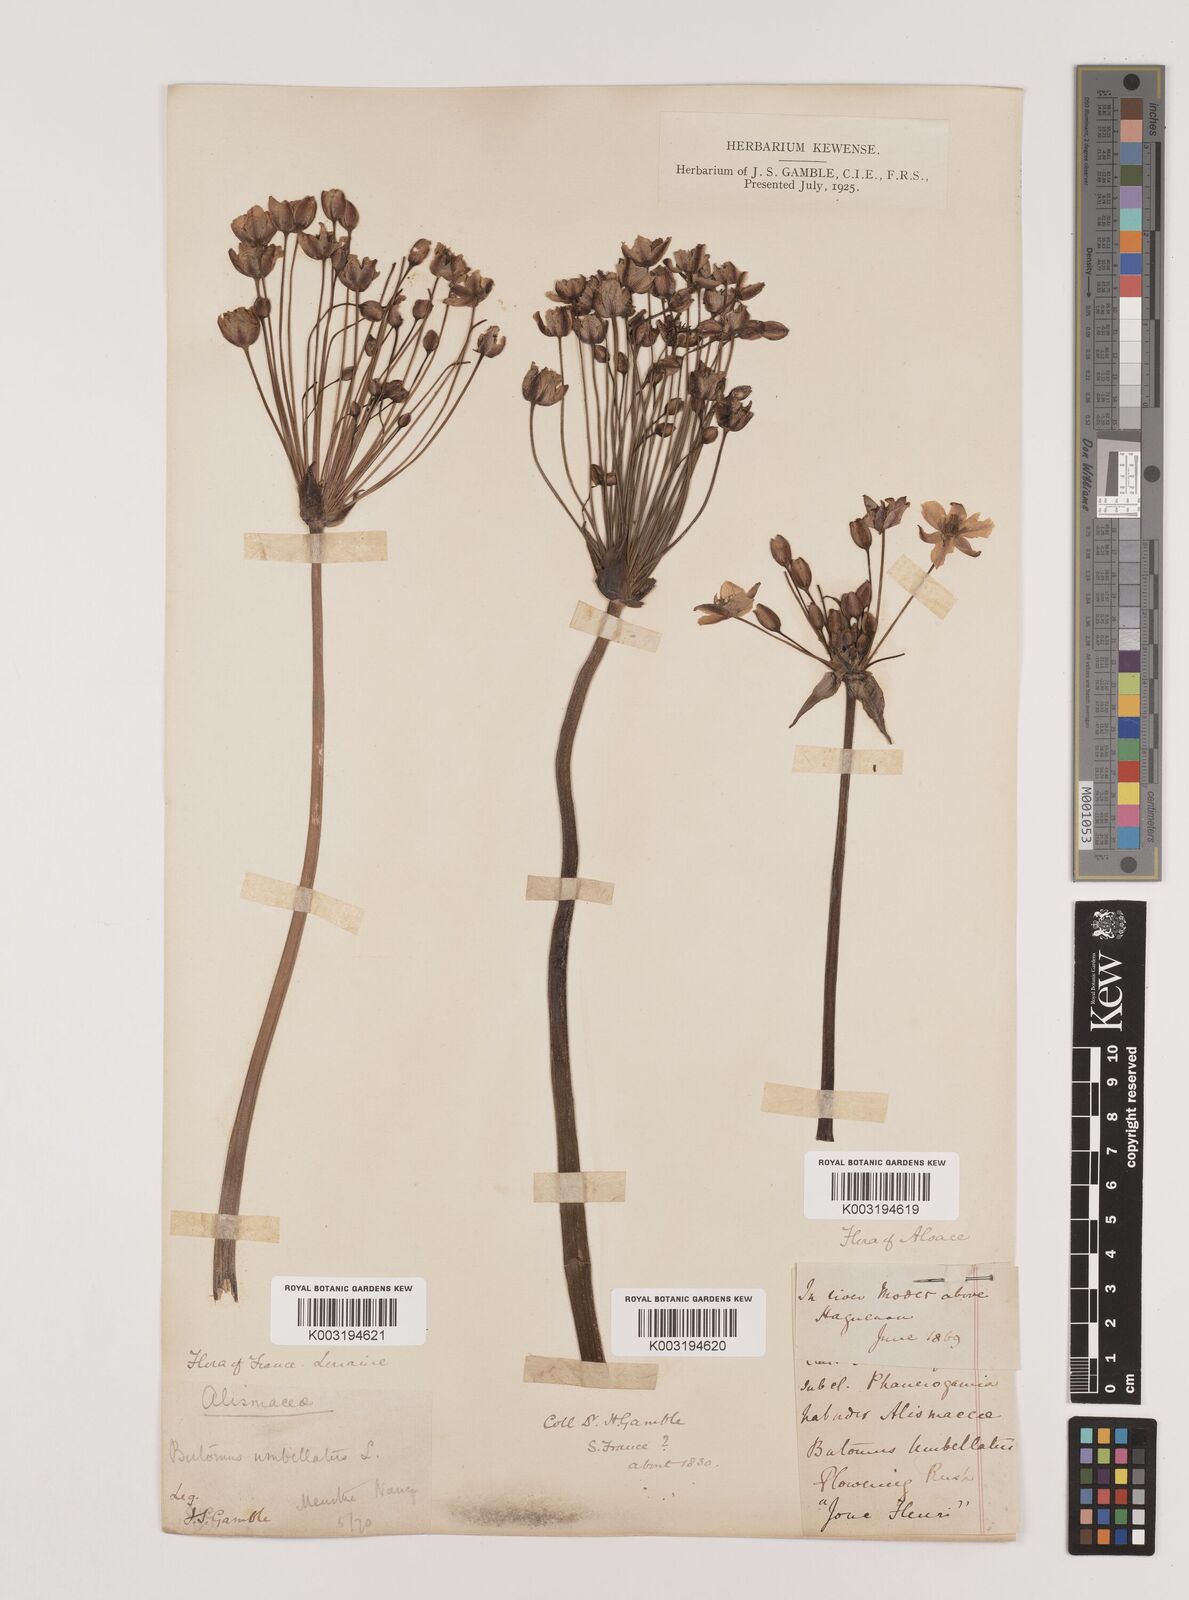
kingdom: Plantae
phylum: Tracheophyta
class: Liliopsida
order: Alismatales
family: Butomaceae
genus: Butomus
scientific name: Butomus umbellatus
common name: Flowering-rush
